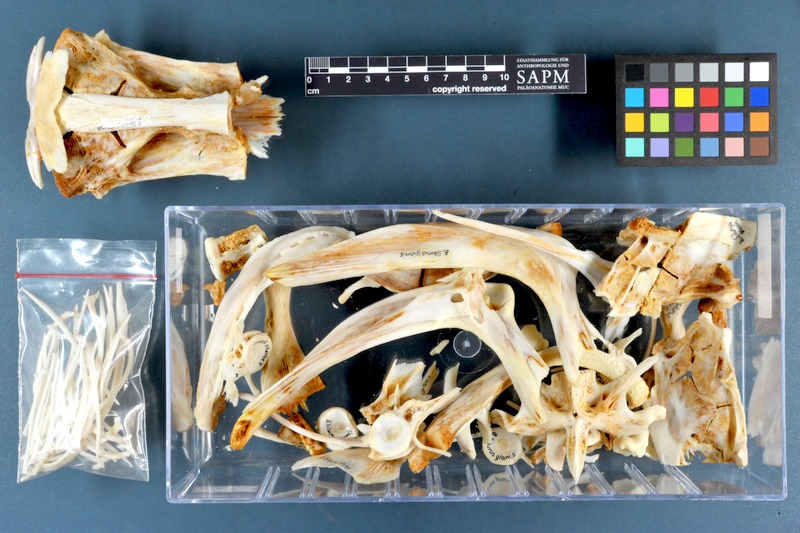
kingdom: Animalia
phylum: Chordata
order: Siluriformes
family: Siluridae
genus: Silurus
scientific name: Silurus glanis
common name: Wels
